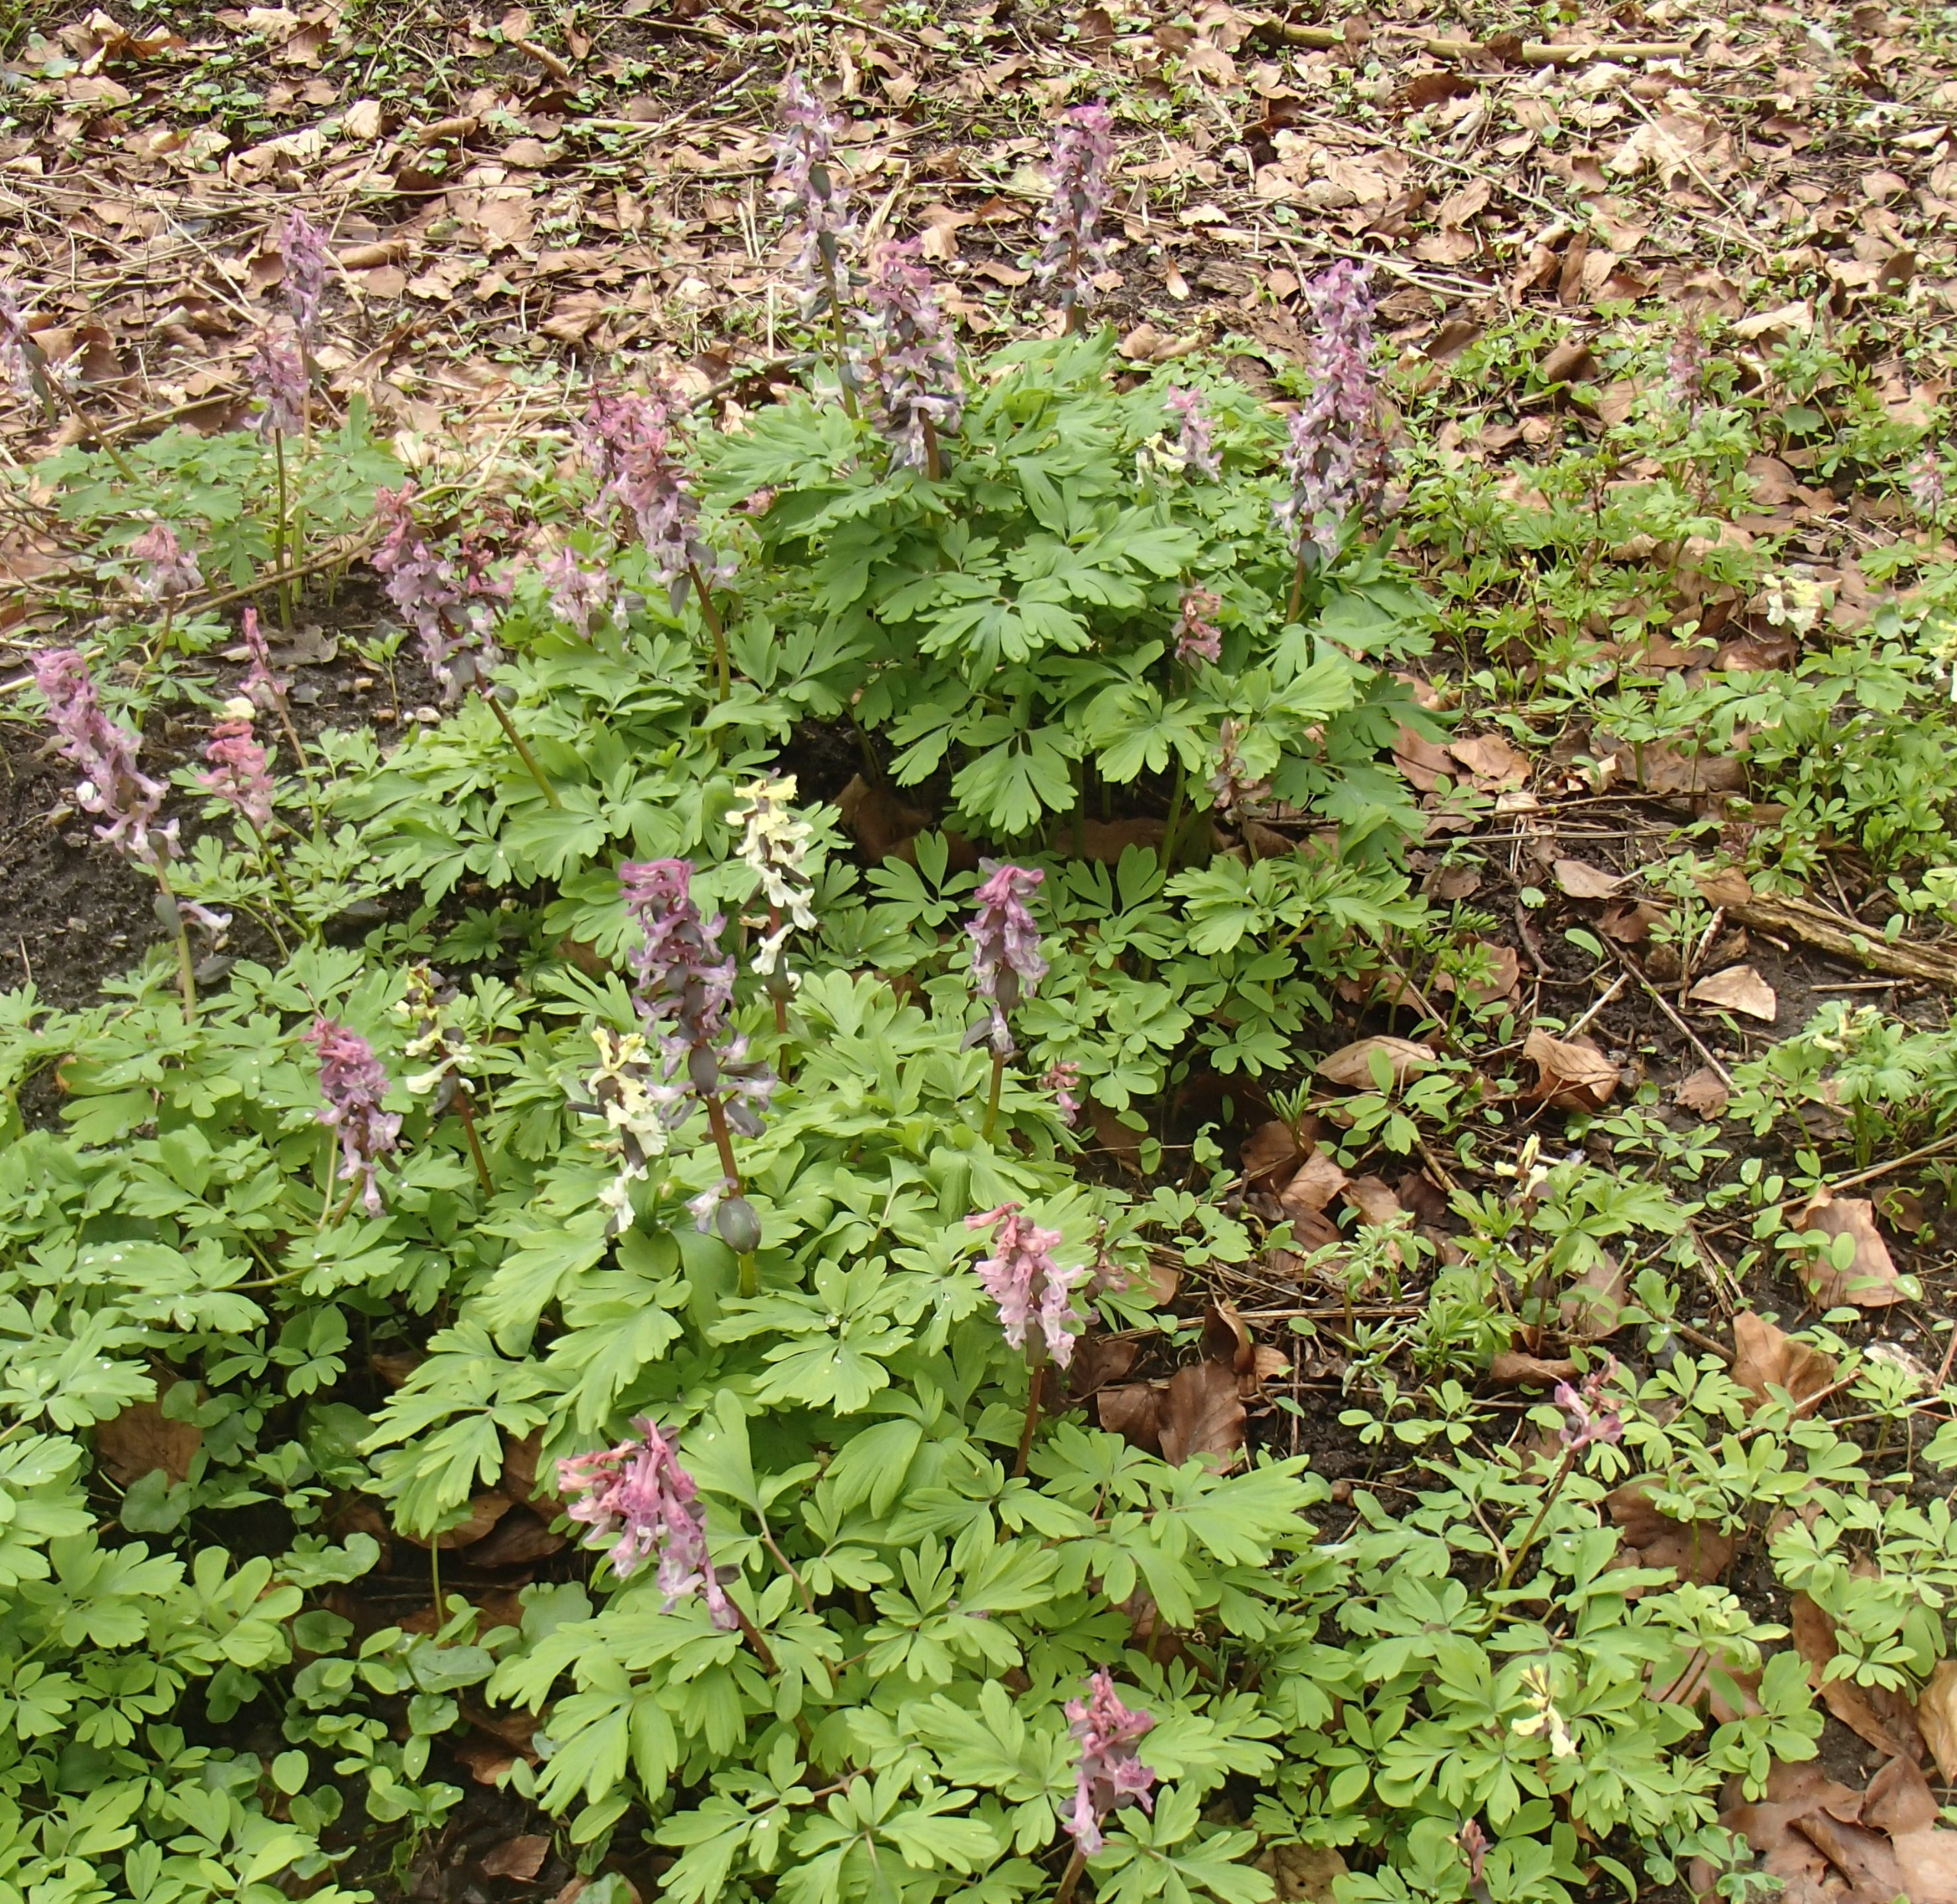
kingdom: Plantae
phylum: Tracheophyta
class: Magnoliopsida
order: Ranunculales
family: Papaveraceae
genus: Corydalis
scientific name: Corydalis cava
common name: Hulrodet lærkespore
